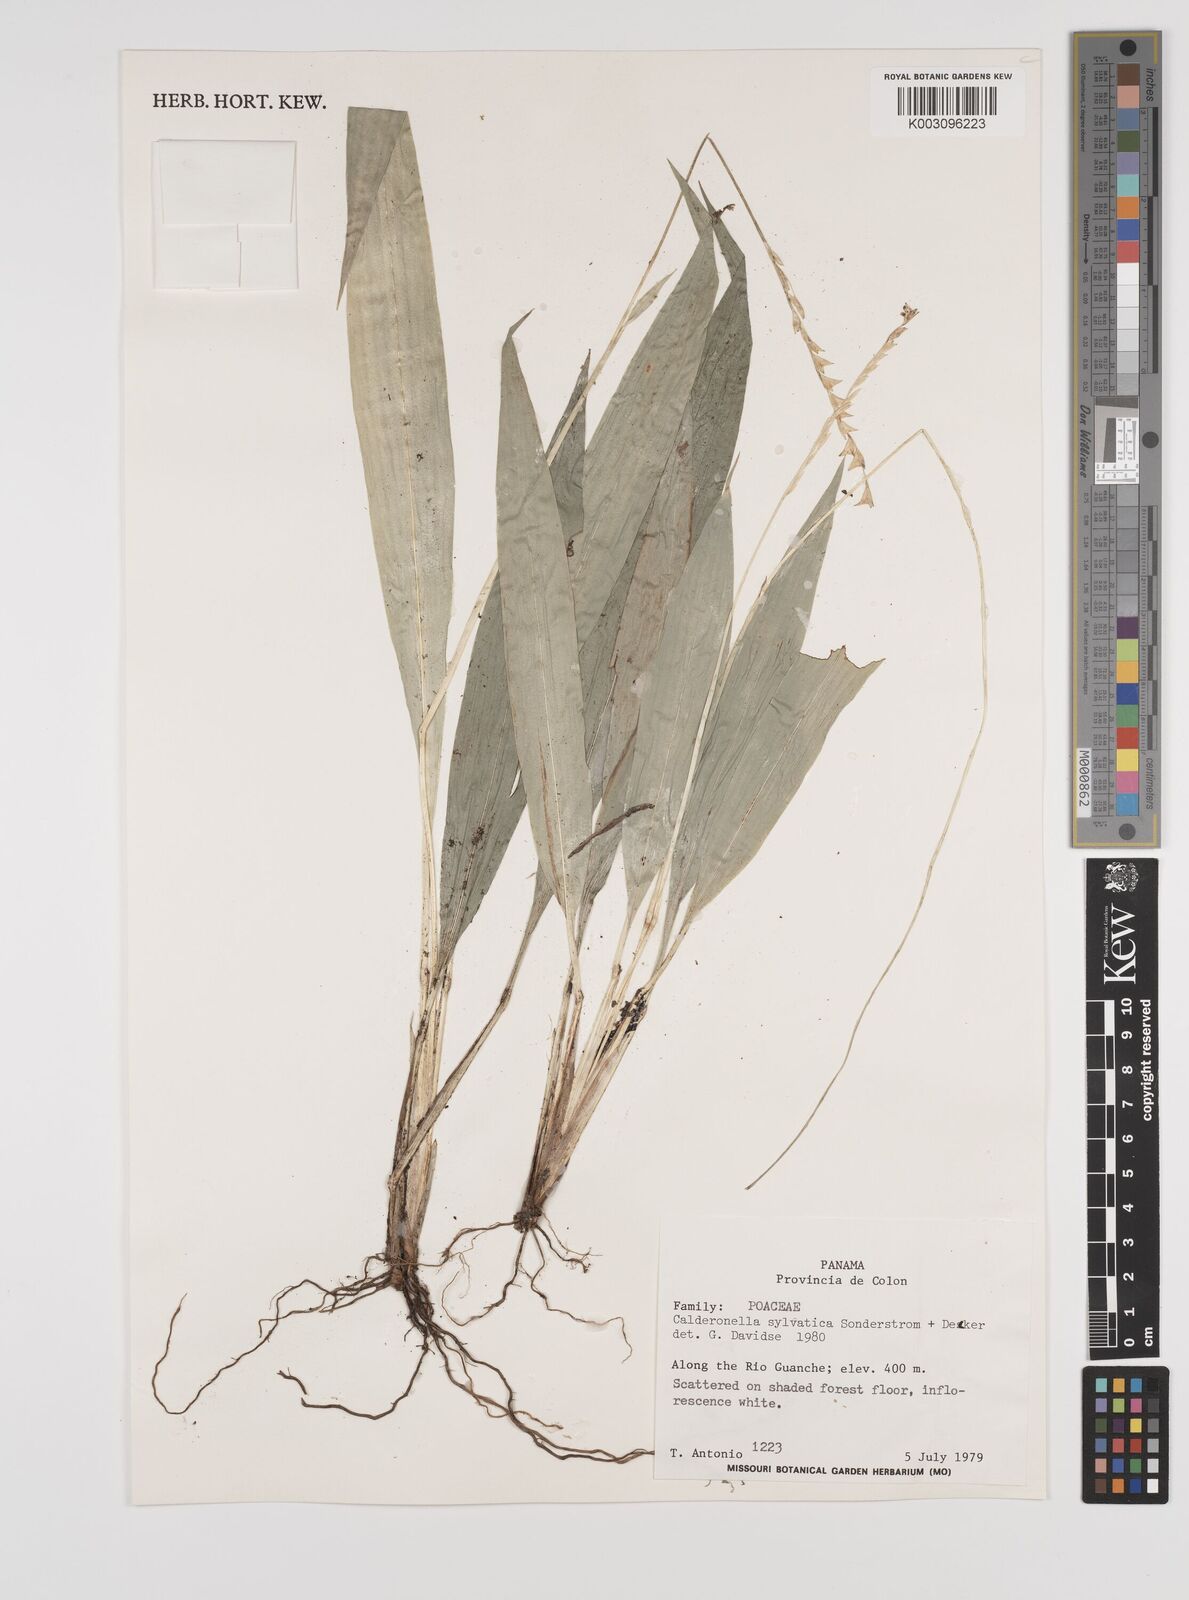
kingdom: Plantae
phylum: Tracheophyta
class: Liliopsida
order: Poales
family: Poaceae
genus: Zeugites
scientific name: Zeugites sylvaticus
